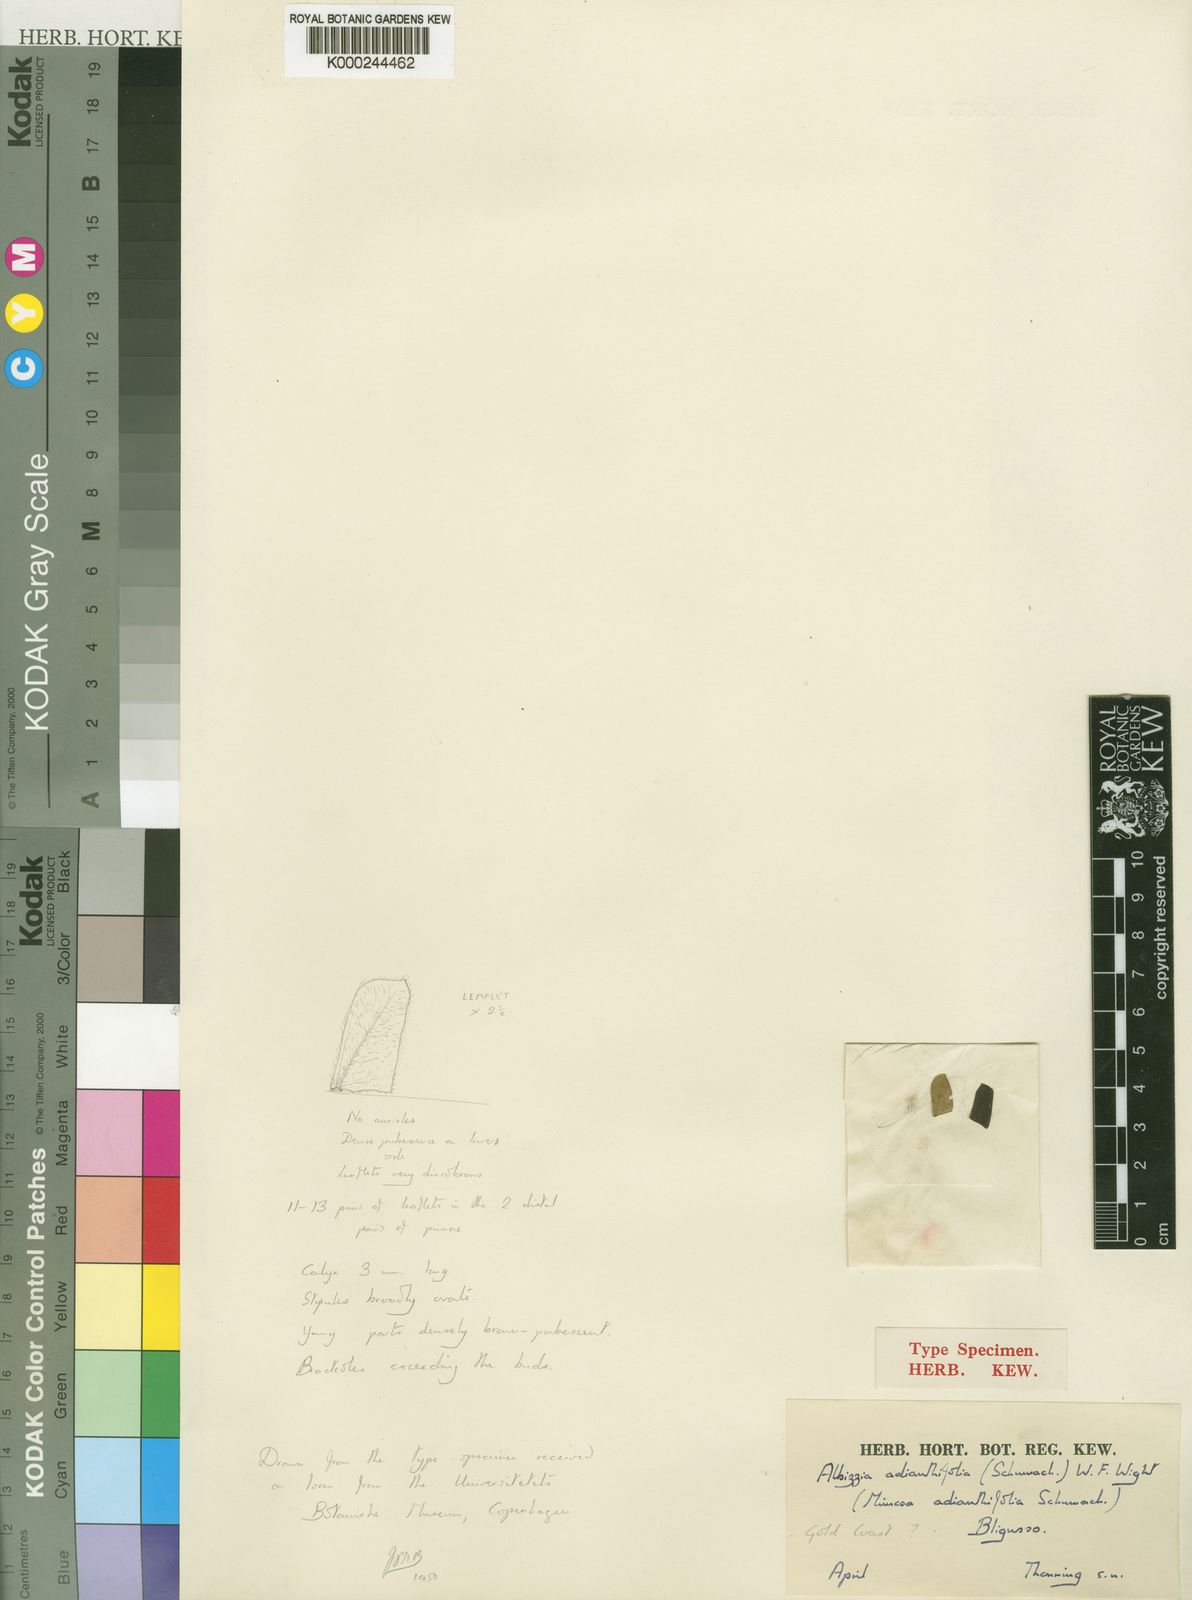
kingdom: Plantae
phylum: Tracheophyta
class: Magnoliopsida
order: Fabales
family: Fabaceae
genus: Albizia
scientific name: Albizia adianthifolia
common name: West african albizia
